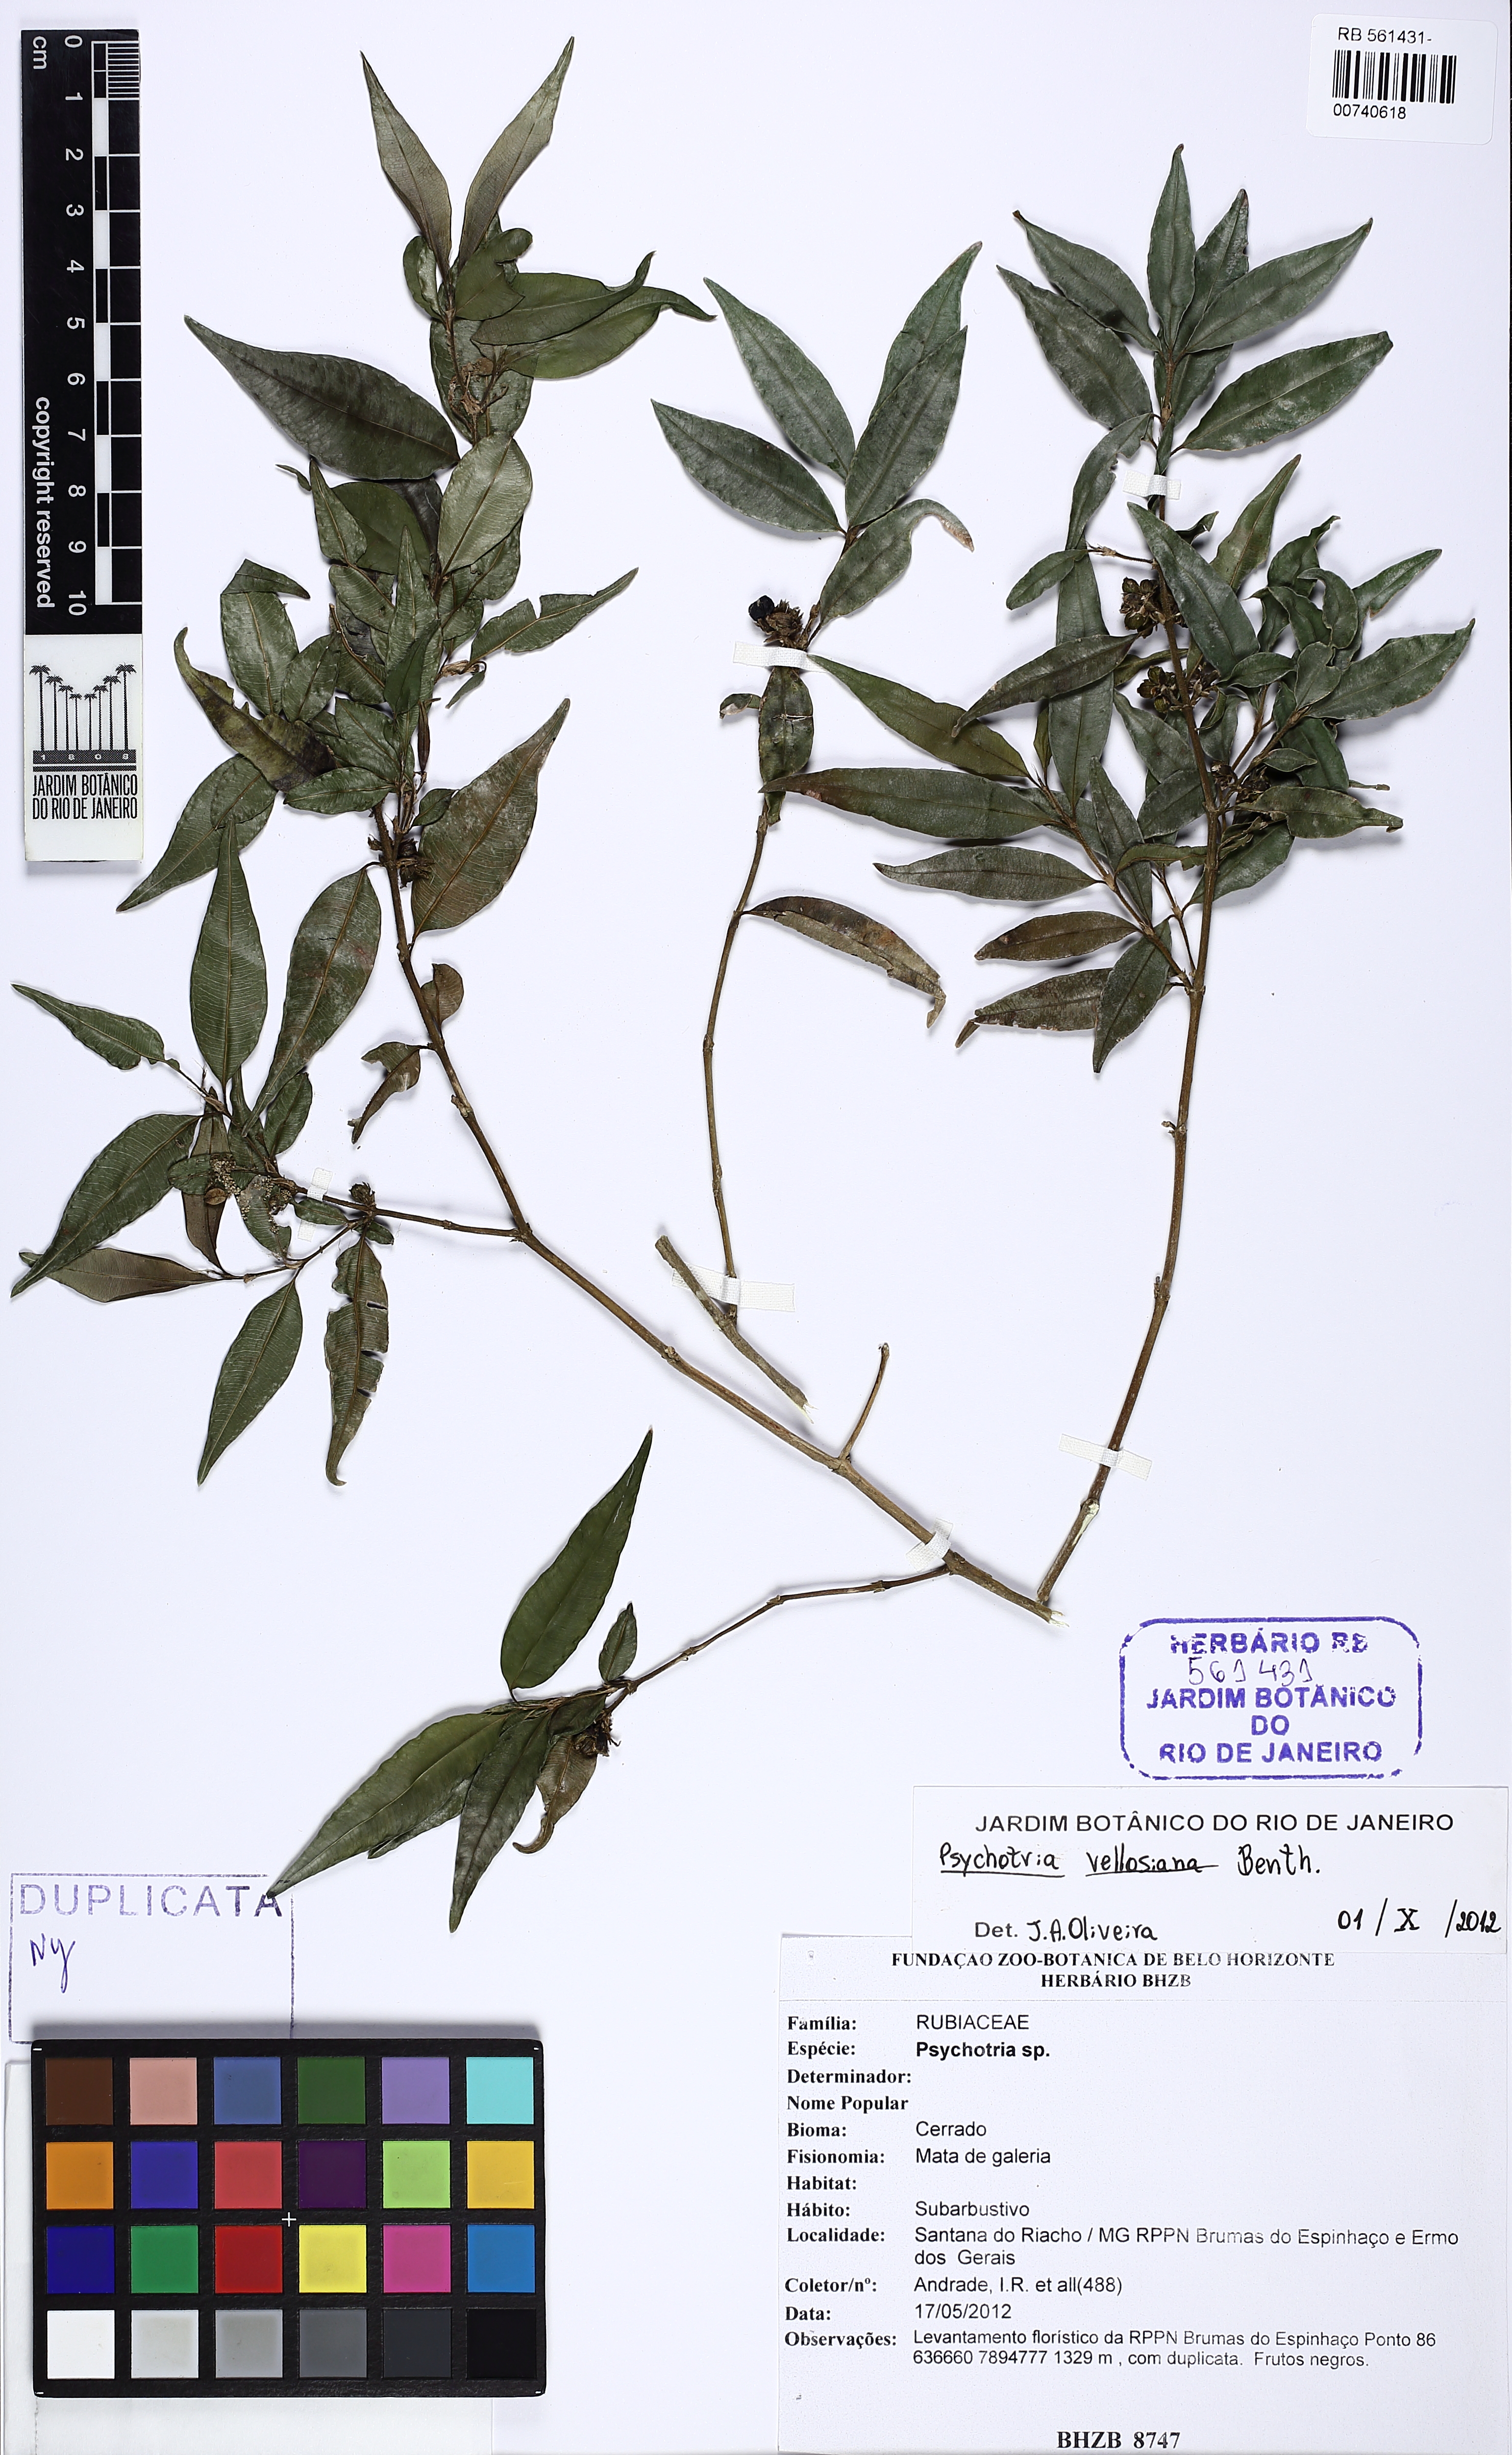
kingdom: Plantae
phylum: Tracheophyta
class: Magnoliopsida
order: Gentianales
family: Rubiaceae
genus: Rudgea
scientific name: Rudgea sessilis
